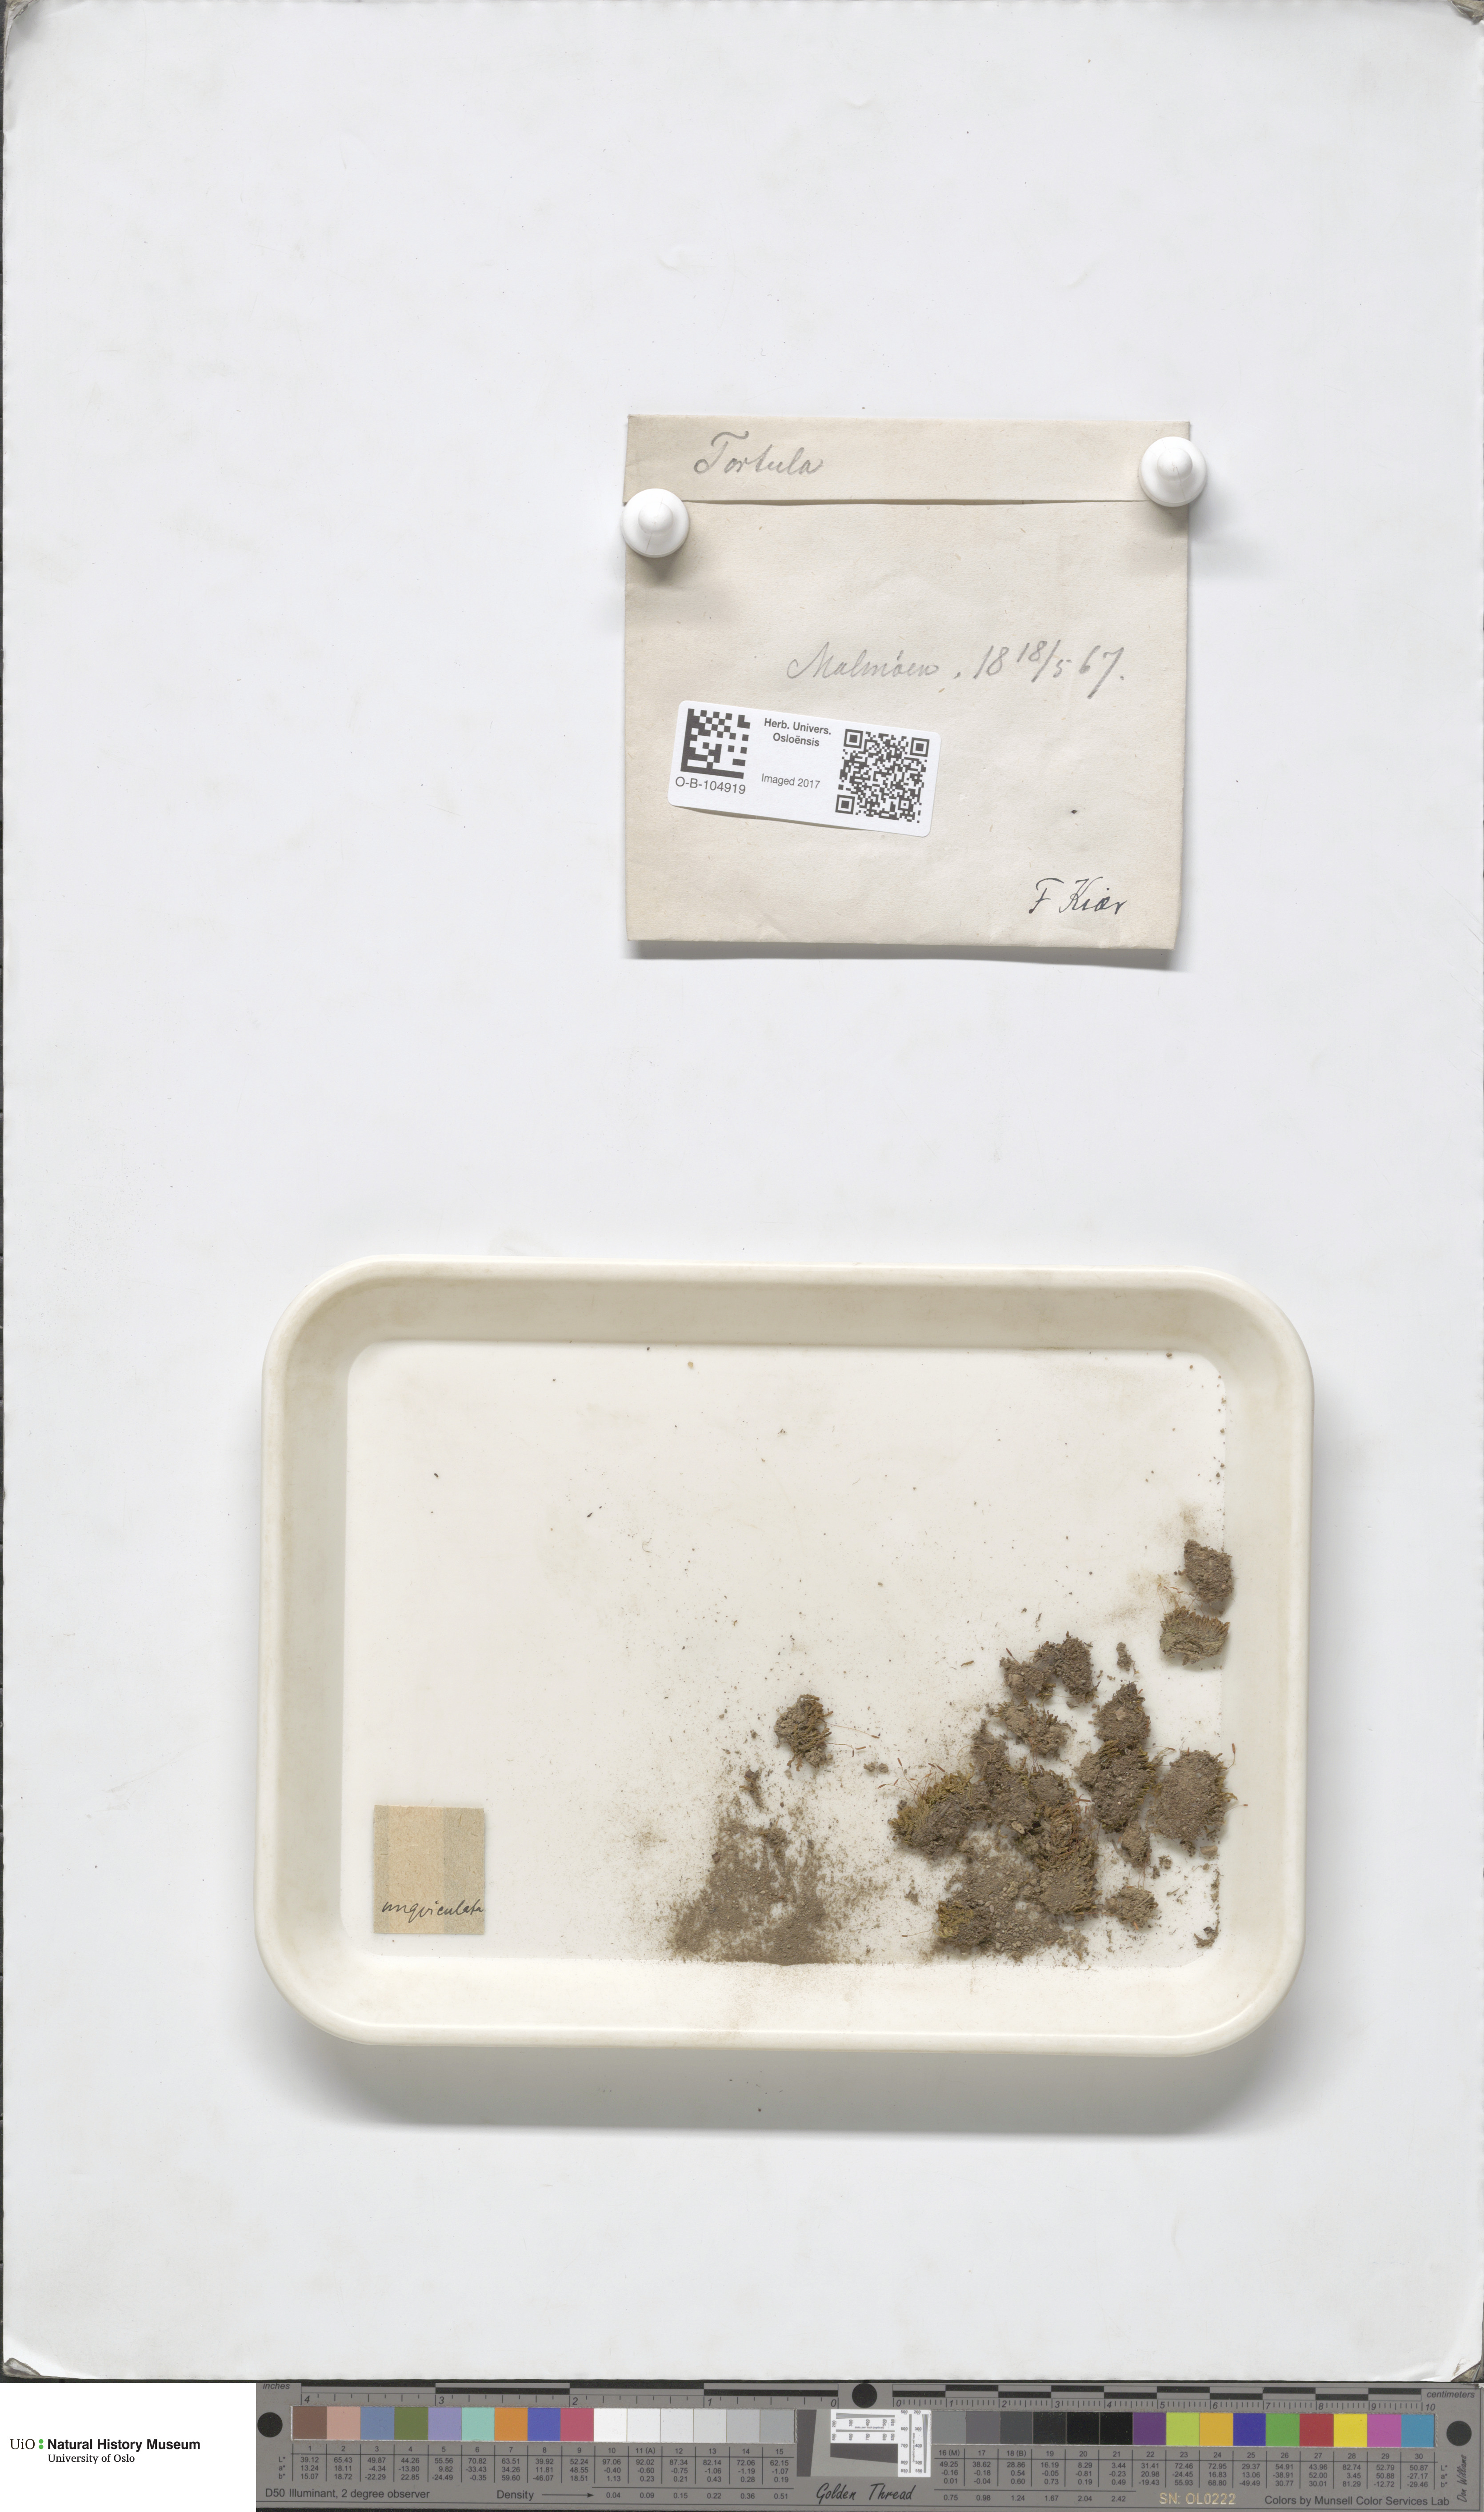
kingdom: Plantae
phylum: Bryophyta
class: Bryopsida
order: Pottiales
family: Pottiaceae
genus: Barbula
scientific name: Barbula unguiculata
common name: Prickly beard moss
